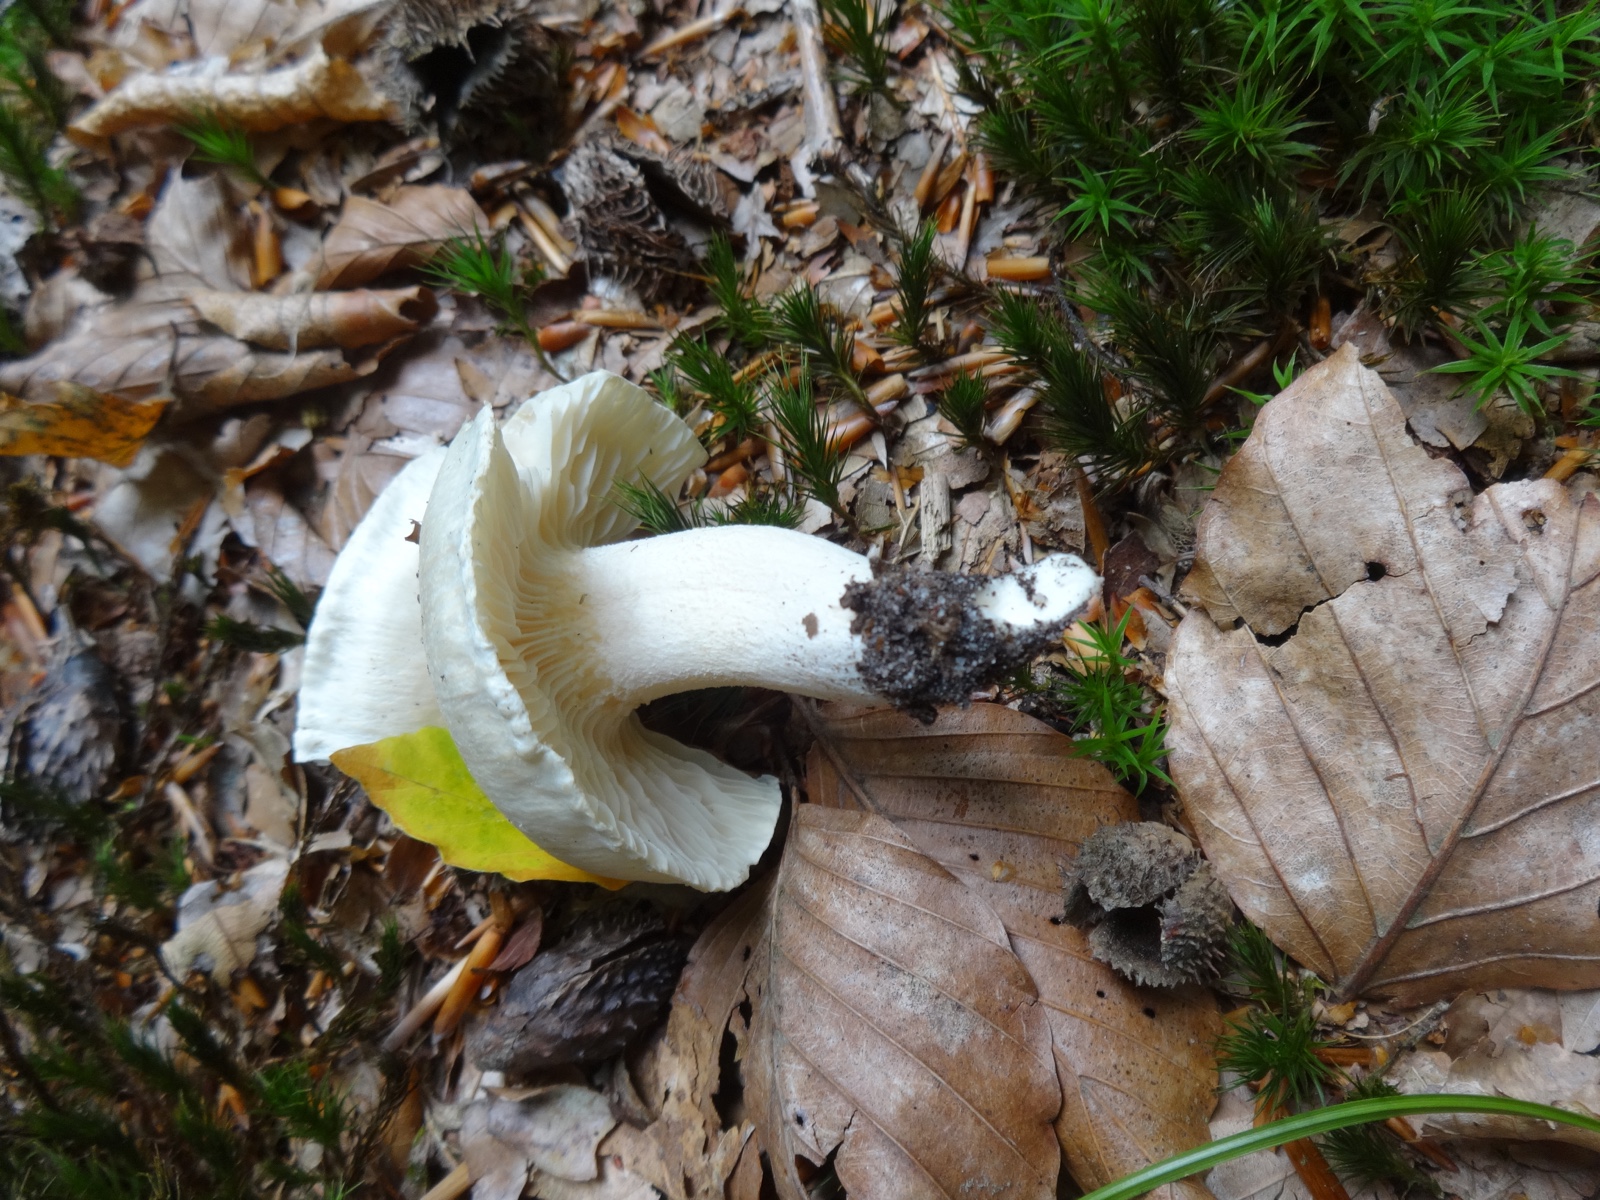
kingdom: Fungi
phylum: Basidiomycota
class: Agaricomycetes
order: Agaricales
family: Hygrophoraceae
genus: Hygrophorus
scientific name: Hygrophorus penarius
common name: spiselig sneglehat
